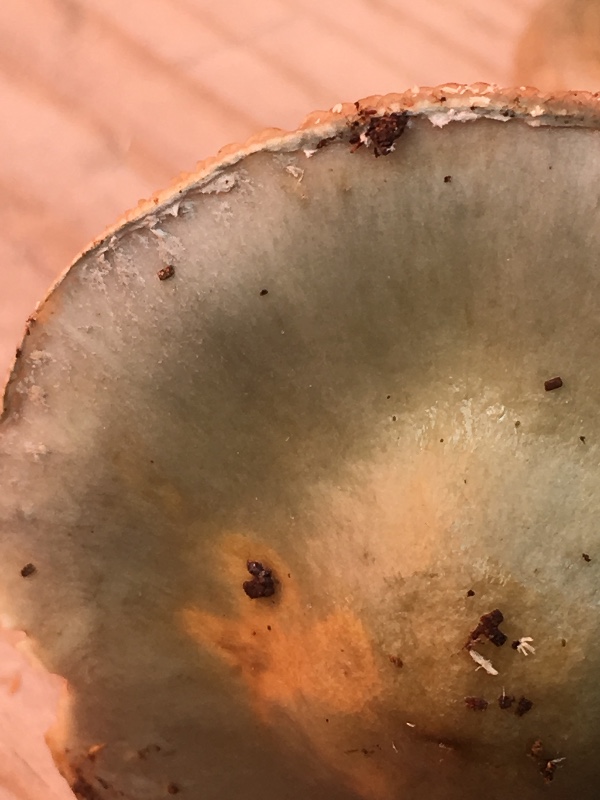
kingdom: Fungi
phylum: Basidiomycota
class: Agaricomycetes
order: Agaricales
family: Strophariaceae
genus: Stropharia
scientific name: Stropharia cyanea
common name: blågrøn bredblad
